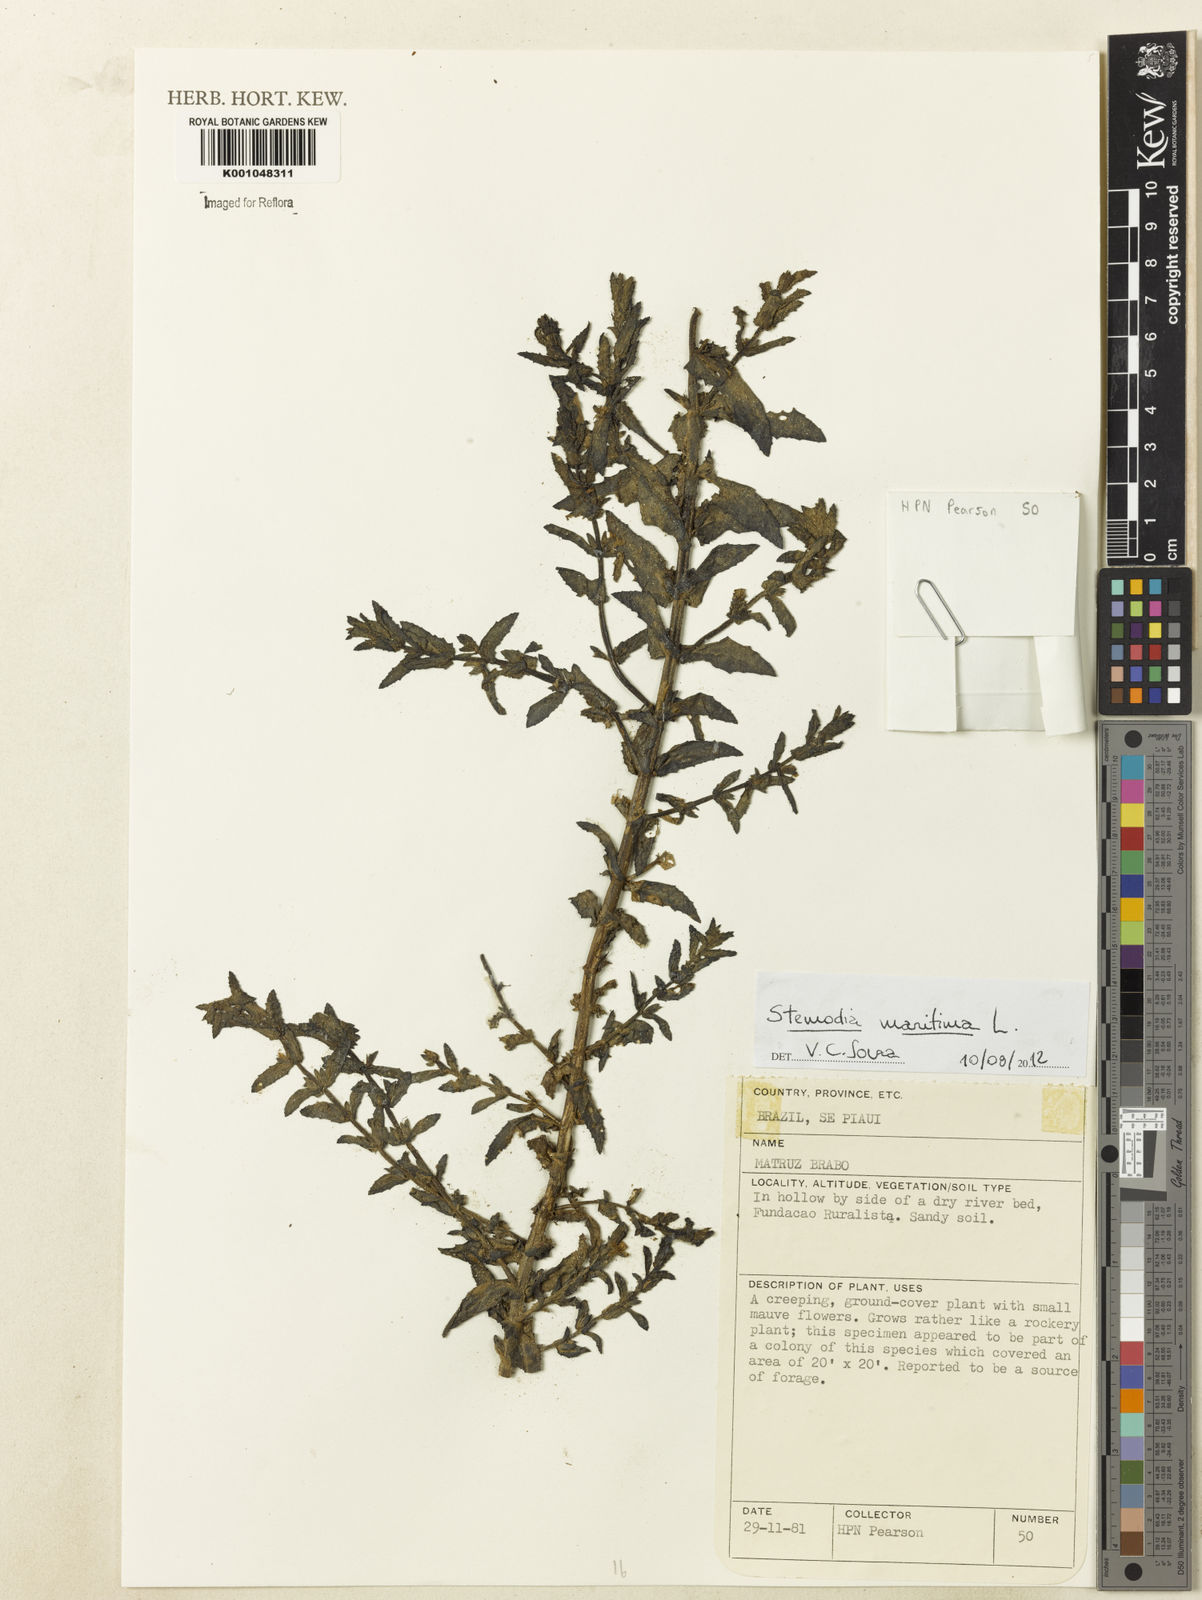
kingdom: Plantae
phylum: Tracheophyta
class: Magnoliopsida
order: Lamiales
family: Plantaginaceae
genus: Stemodia
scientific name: Stemodia maritima
